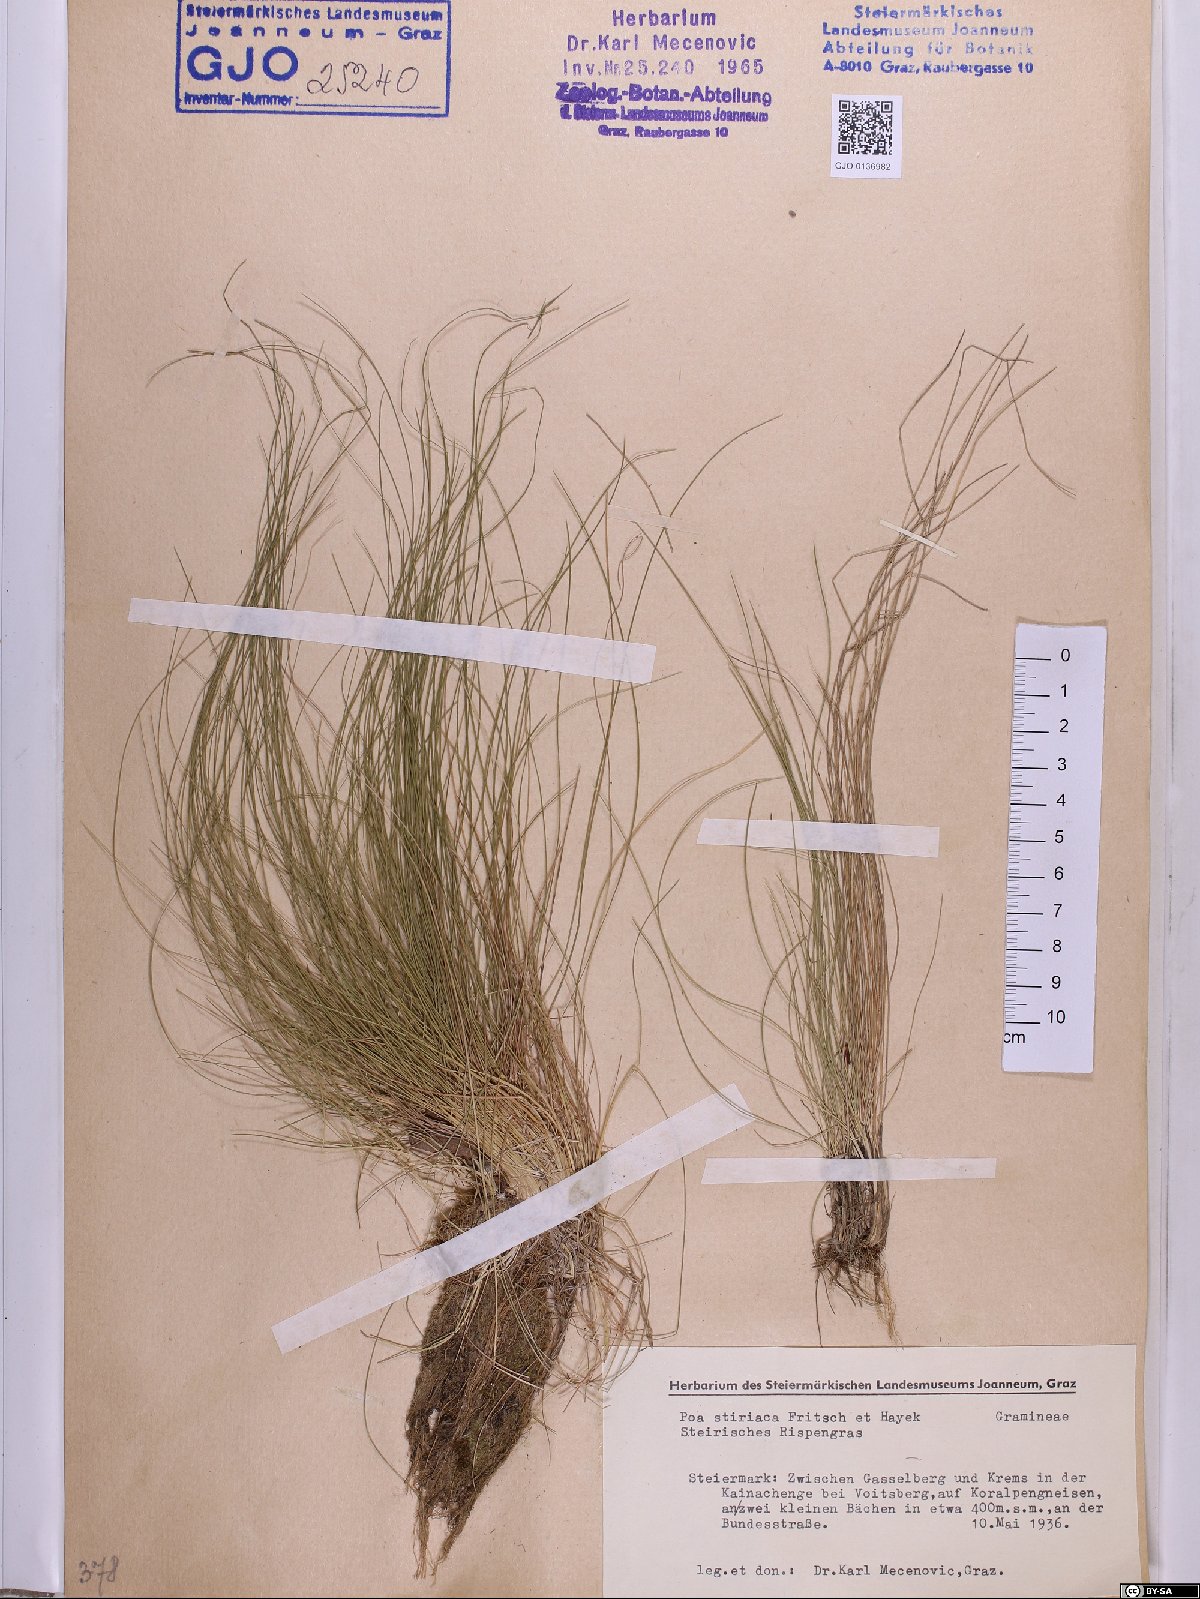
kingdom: Plantae
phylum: Tracheophyta
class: Liliopsida
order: Poales
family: Poaceae
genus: Poa
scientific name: Poa stiriaca
